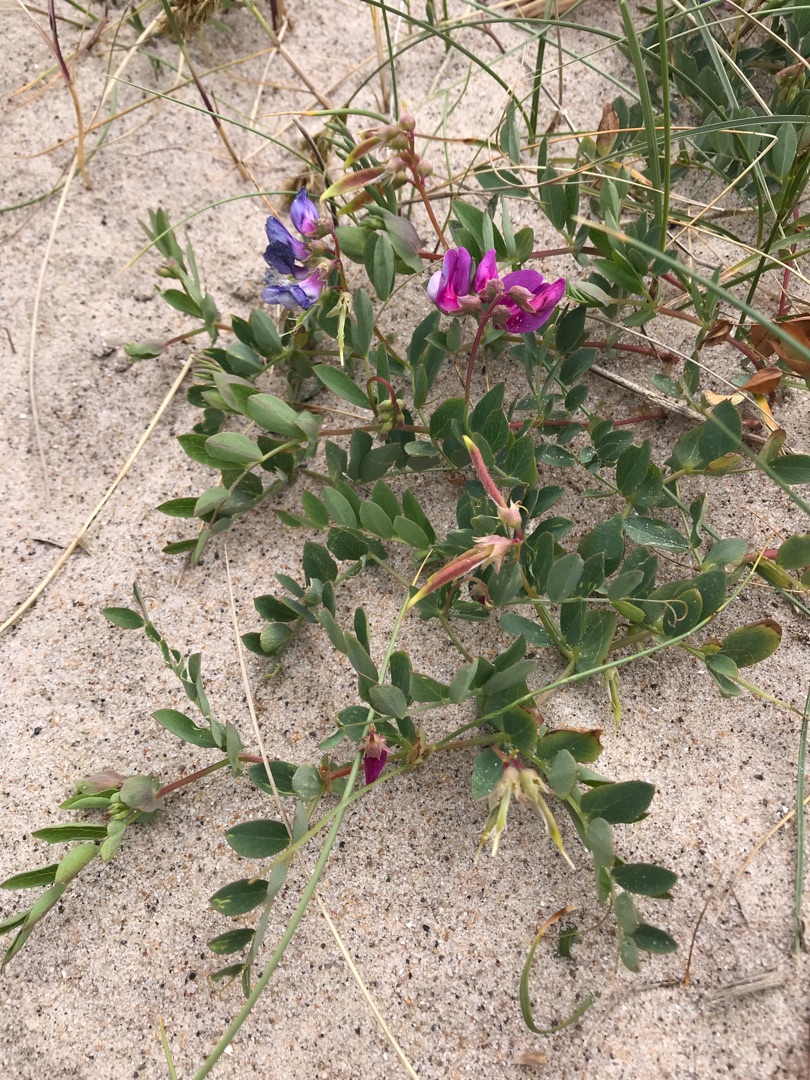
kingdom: Plantae
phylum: Tracheophyta
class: Magnoliopsida
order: Fabales
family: Fabaceae
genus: Lathyrus
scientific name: Lathyrus japonicus
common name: Strand-fladbælg
